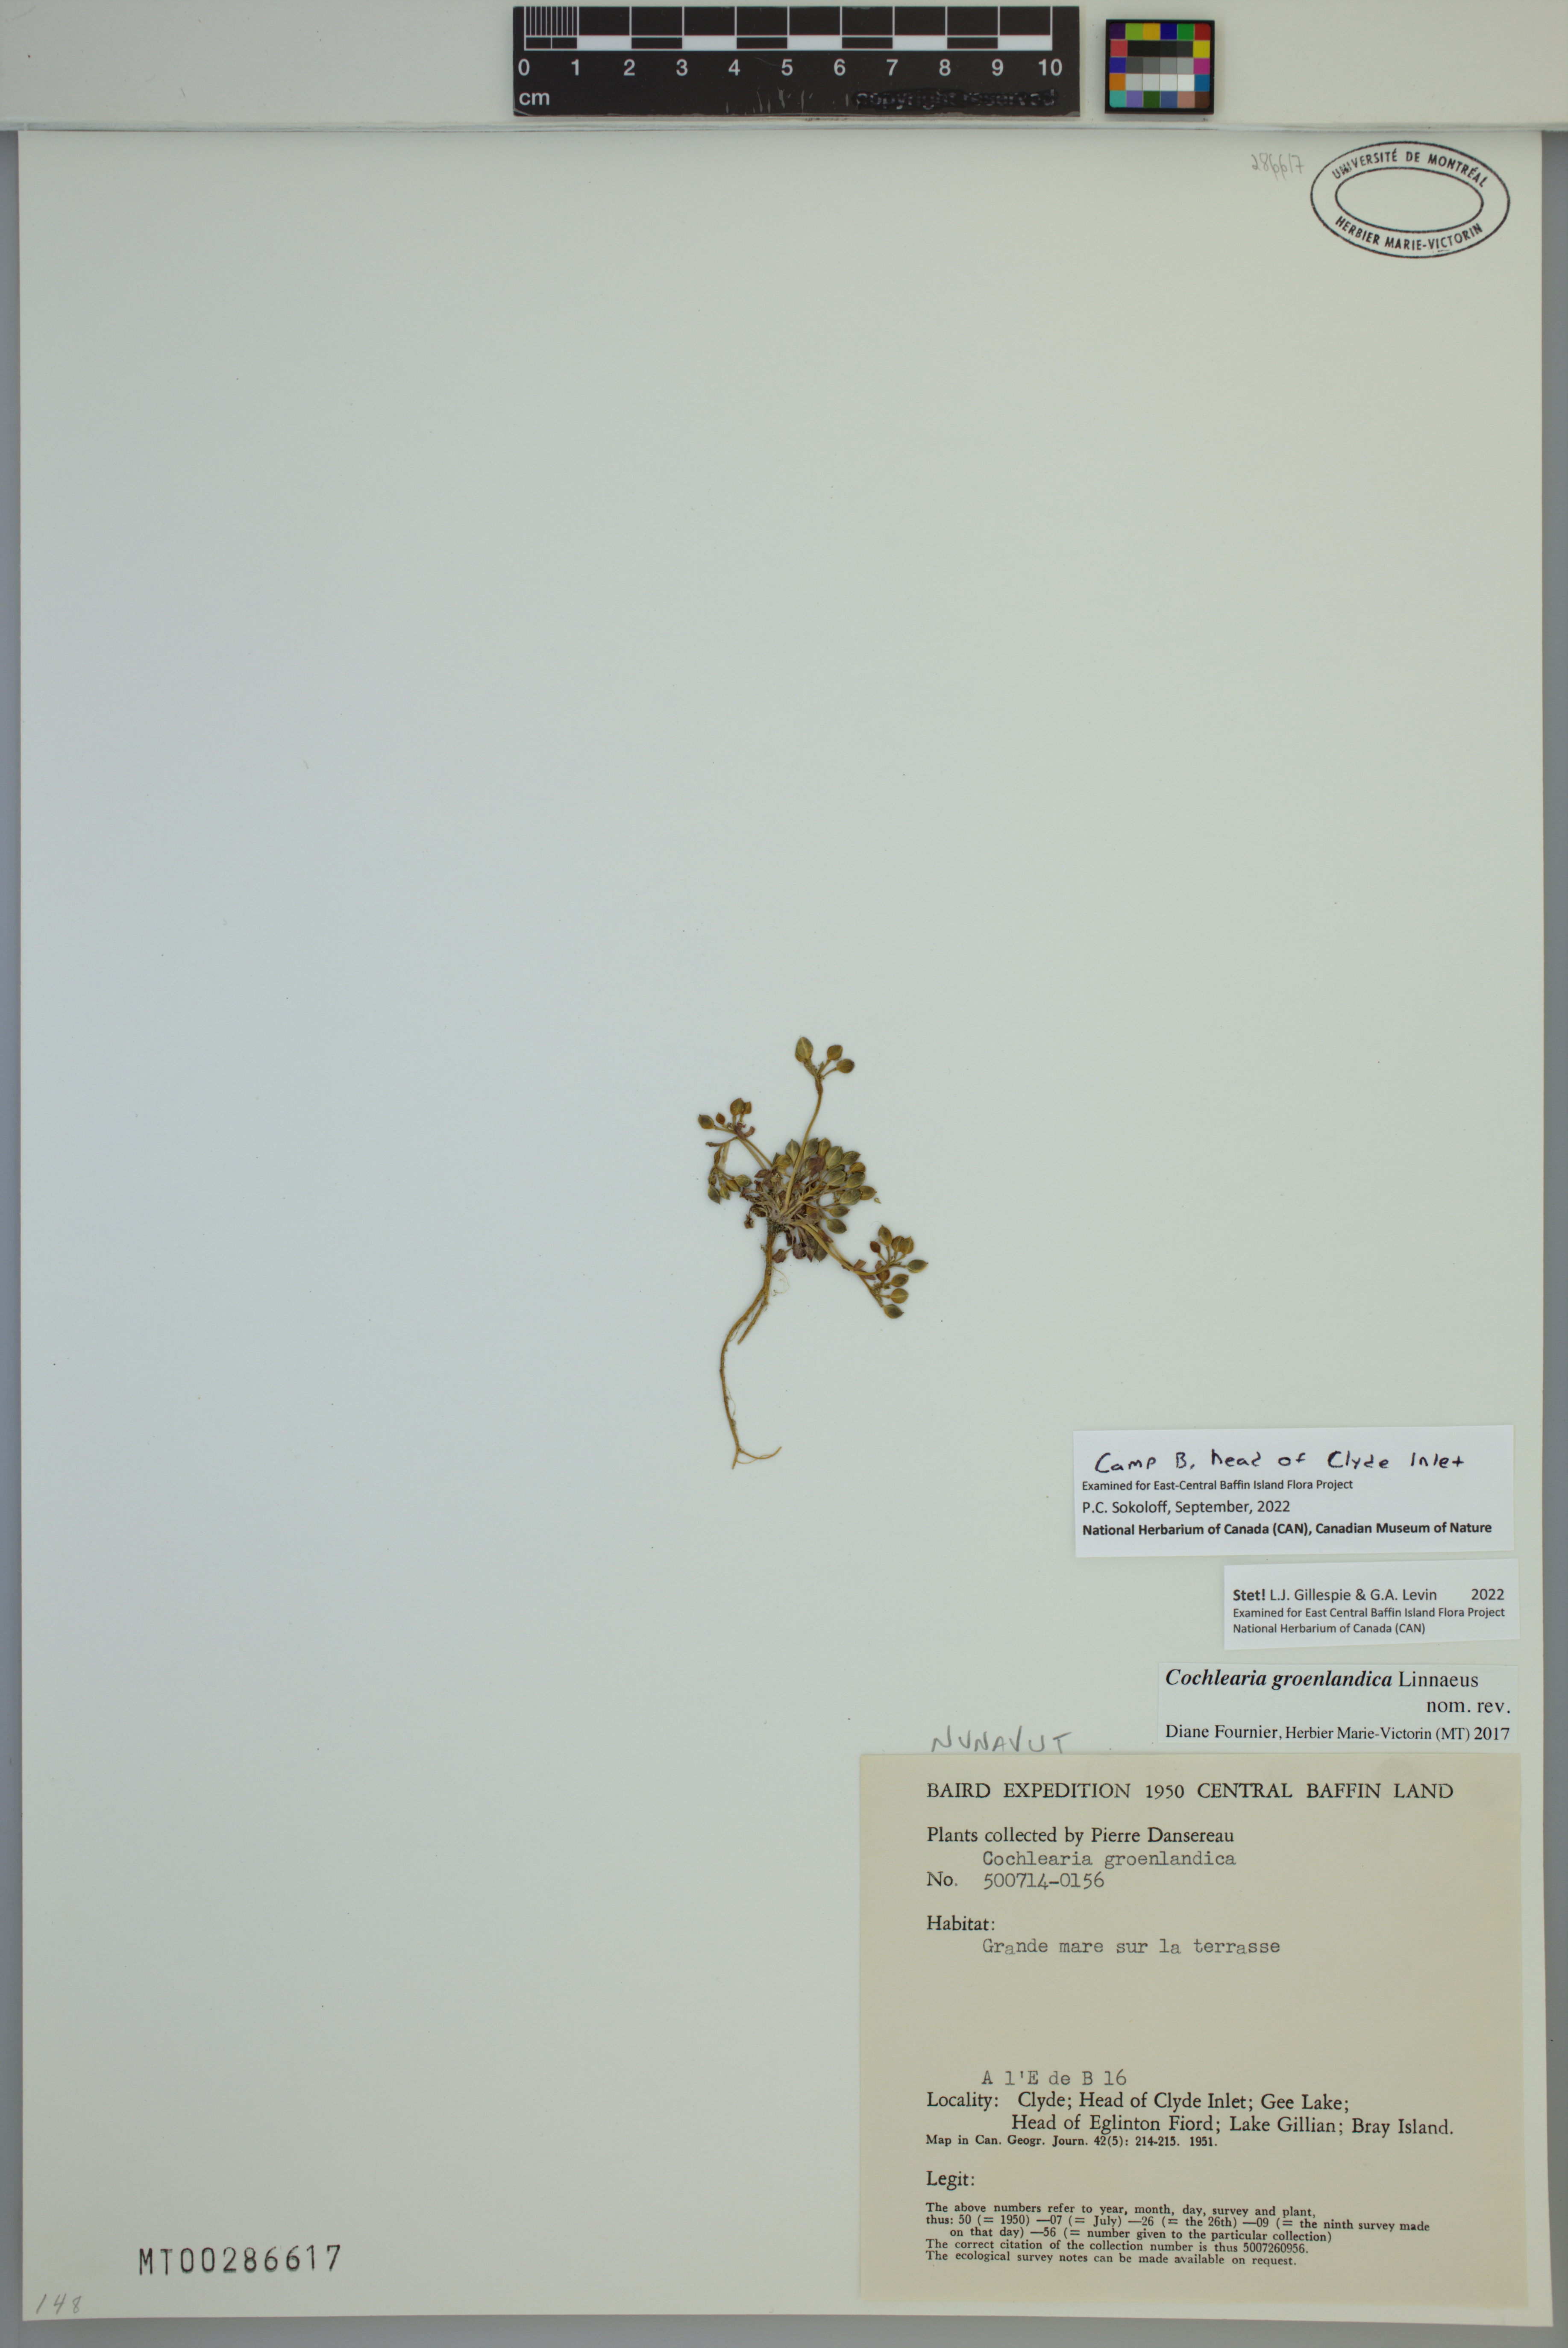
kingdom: Plantae
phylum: Tracheophyta
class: Magnoliopsida
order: Brassicales
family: Brassicaceae
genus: Cochlearia
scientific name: Cochlearia groenlandica
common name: Danish scurvygrass
